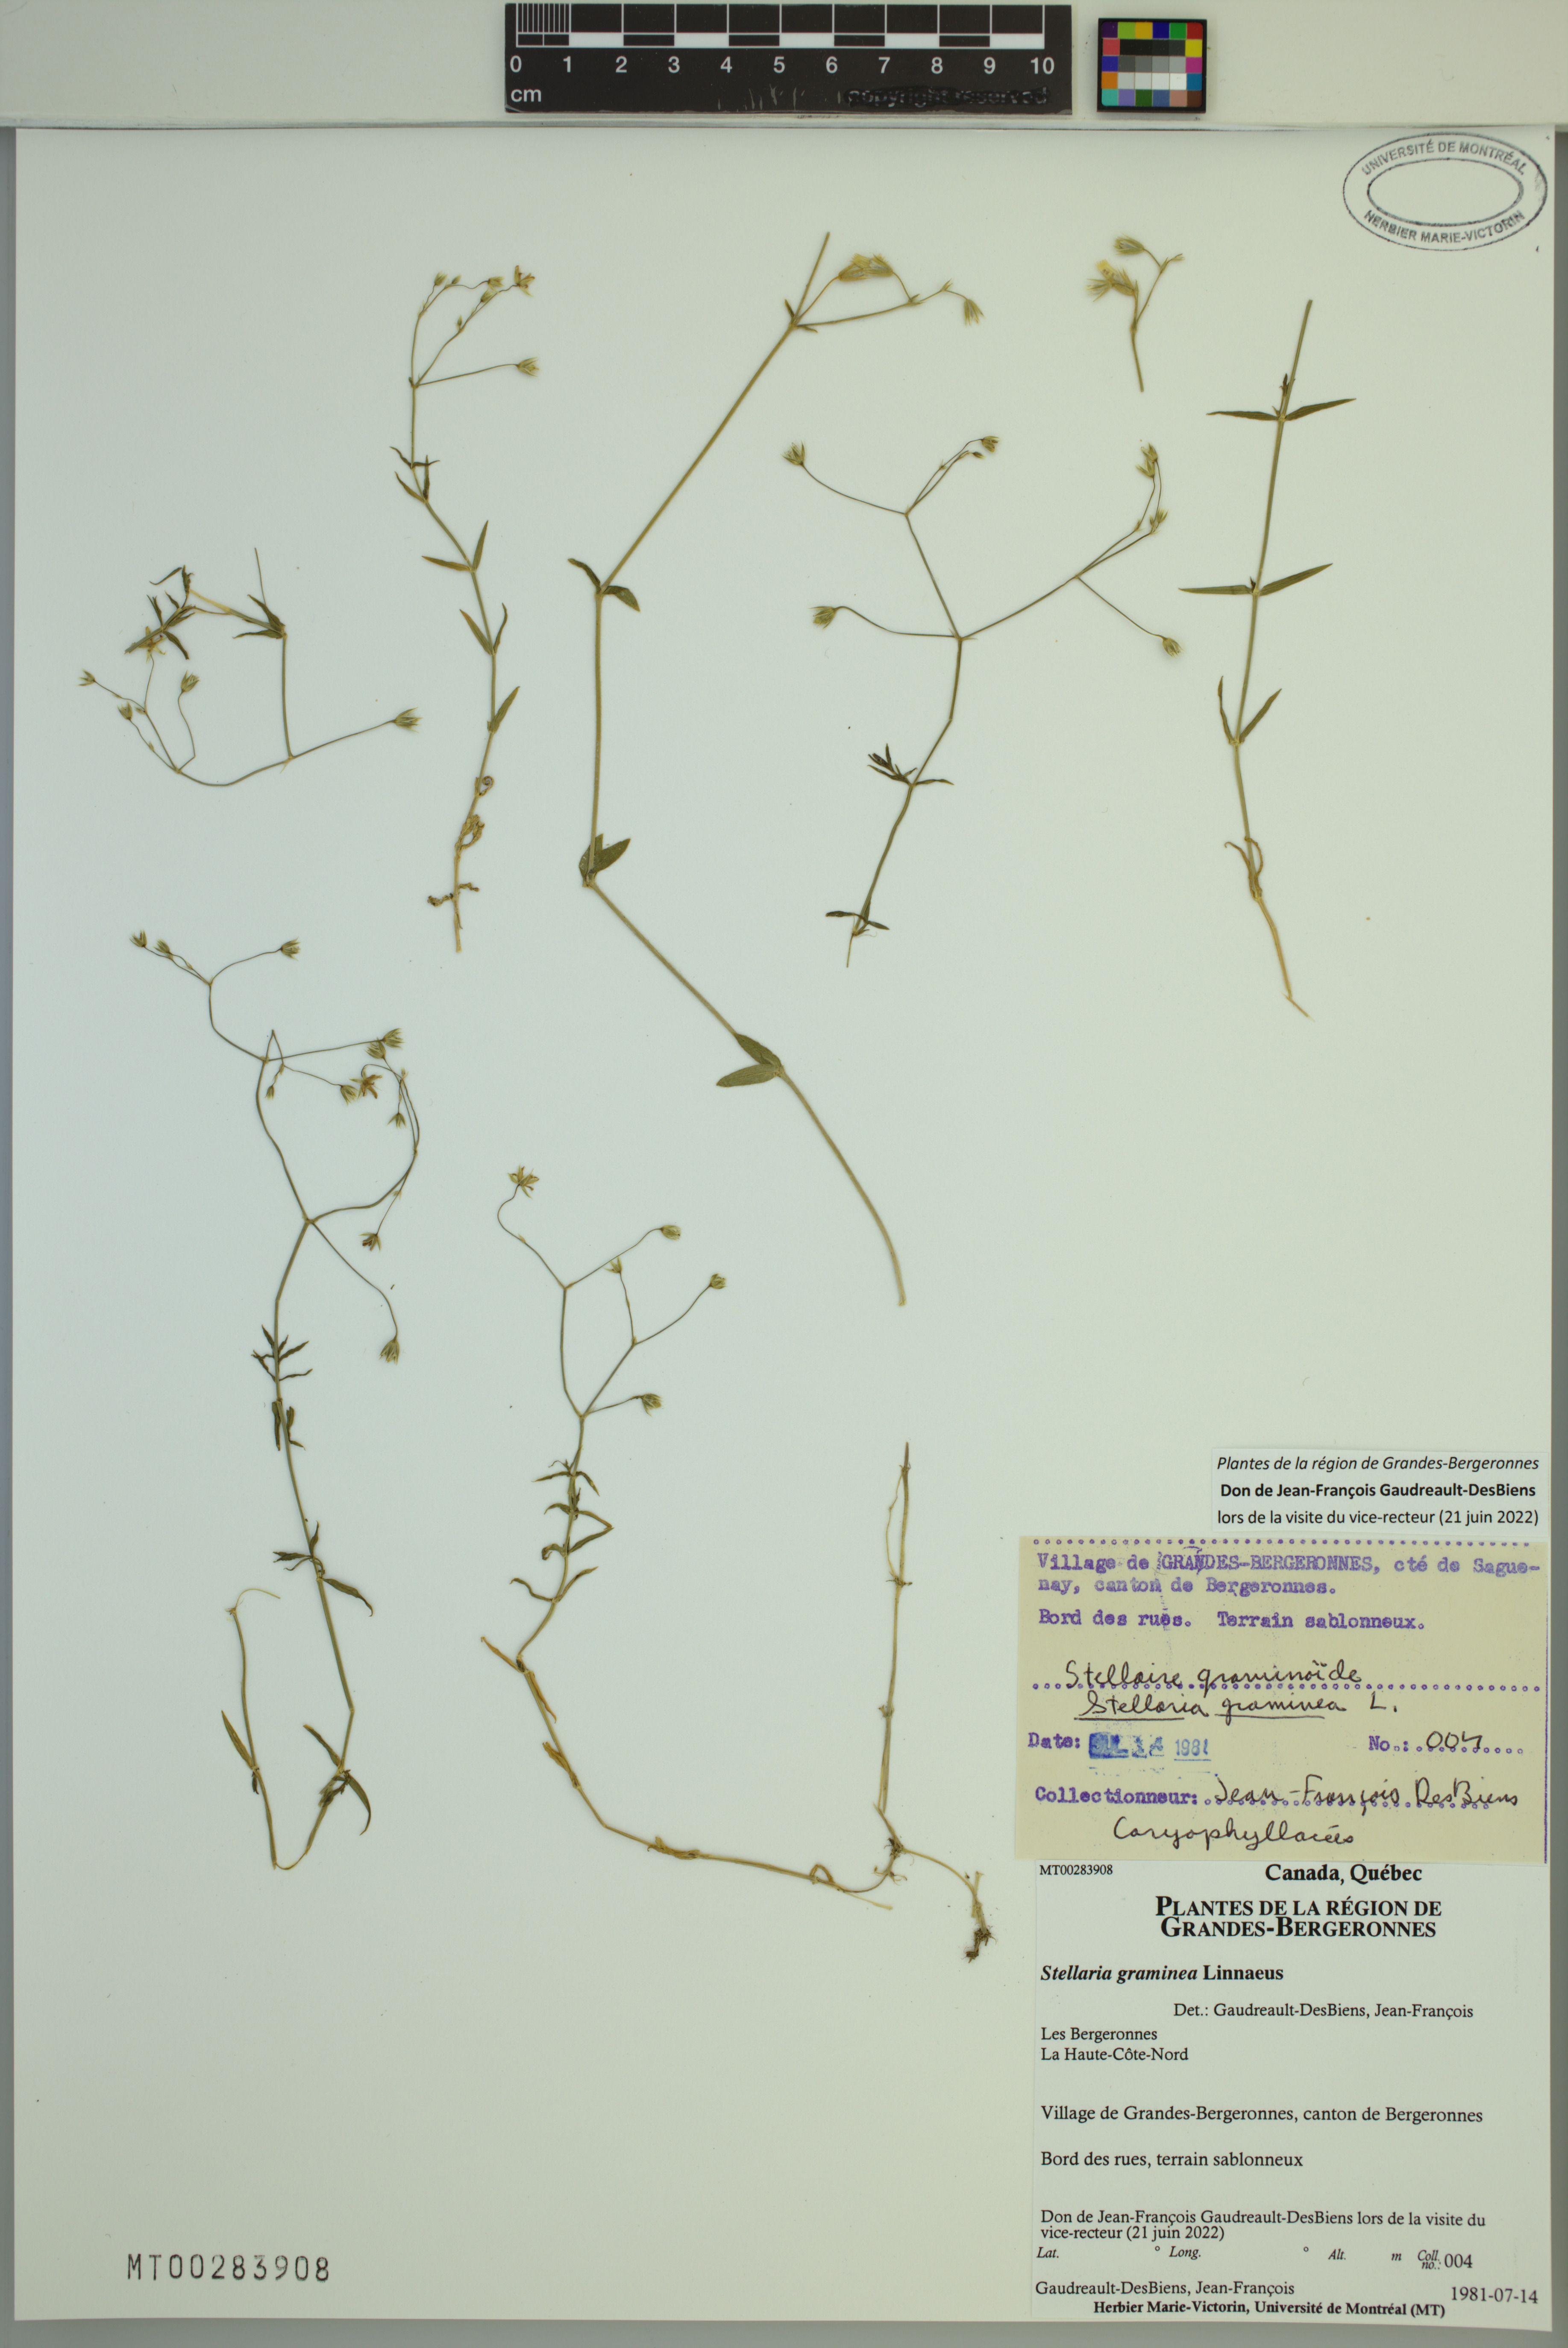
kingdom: Plantae
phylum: Tracheophyta
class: Magnoliopsida
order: Caryophyllales
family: Caryophyllaceae
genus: Stellaria
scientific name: Stellaria graminea
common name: Grass-like starwort
